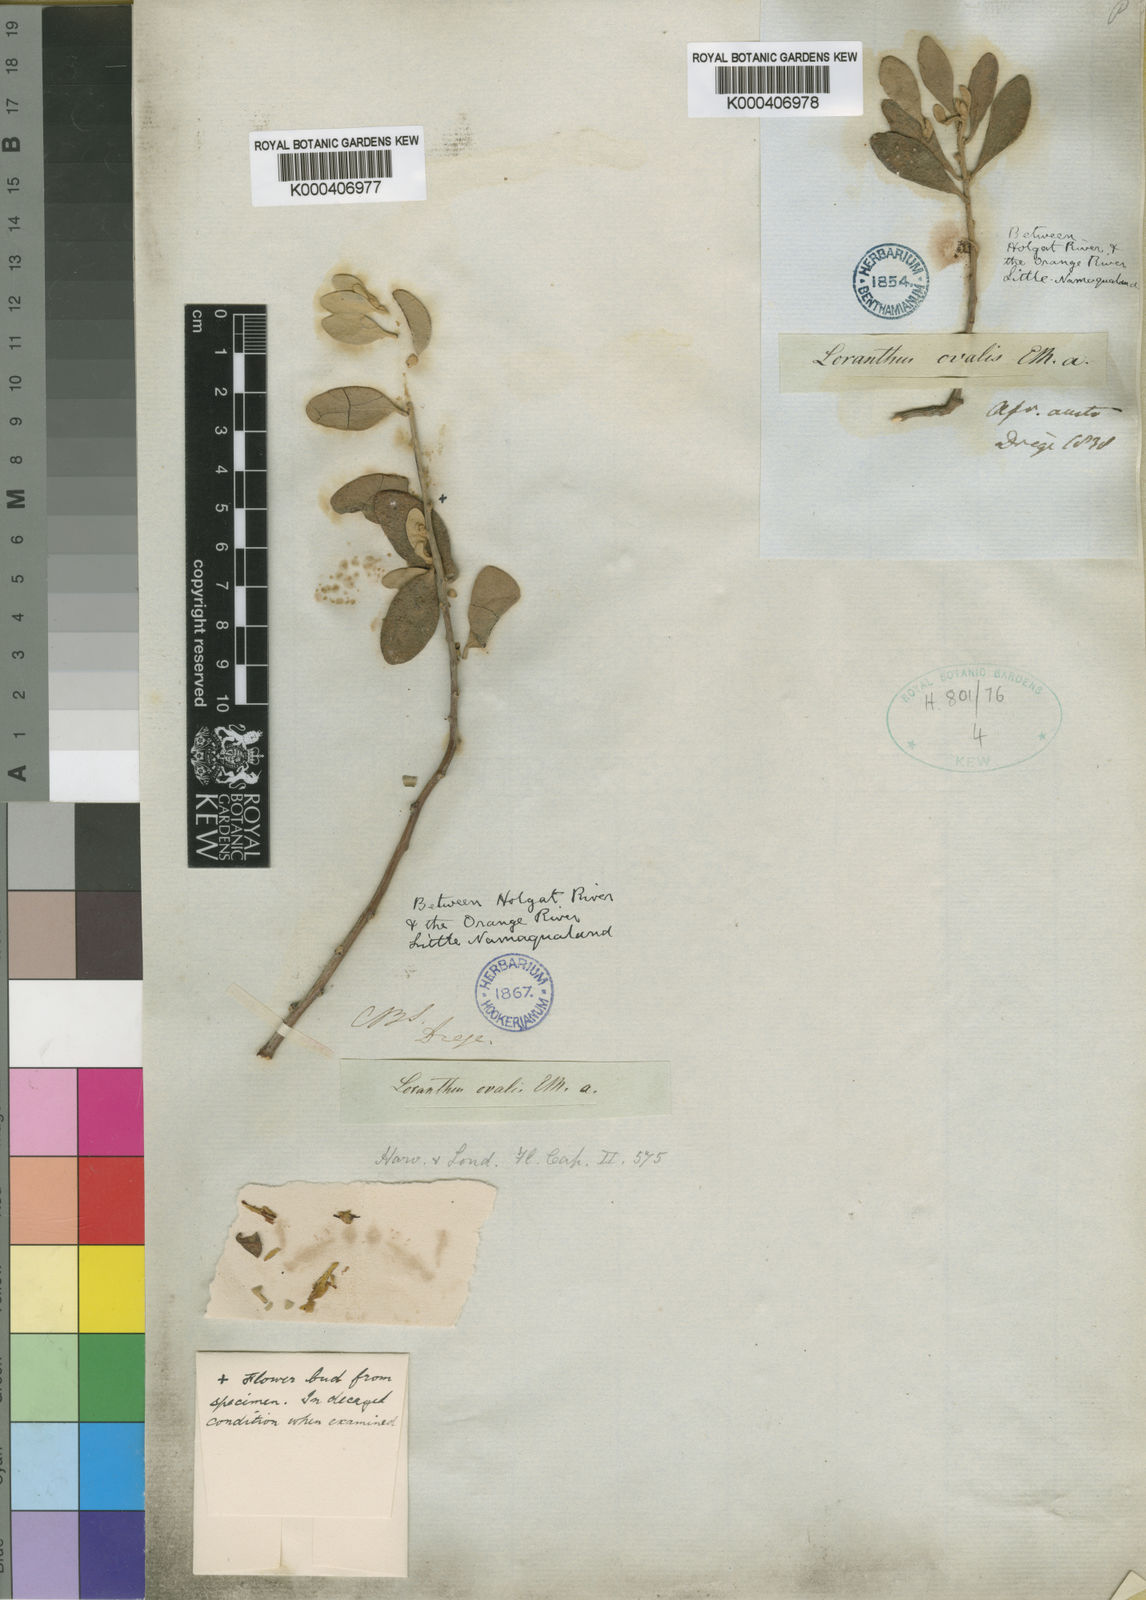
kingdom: Plantae
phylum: Tracheophyta
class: Magnoliopsida
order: Santalales
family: Loranthaceae
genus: Septulina
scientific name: Septulina ovalis
